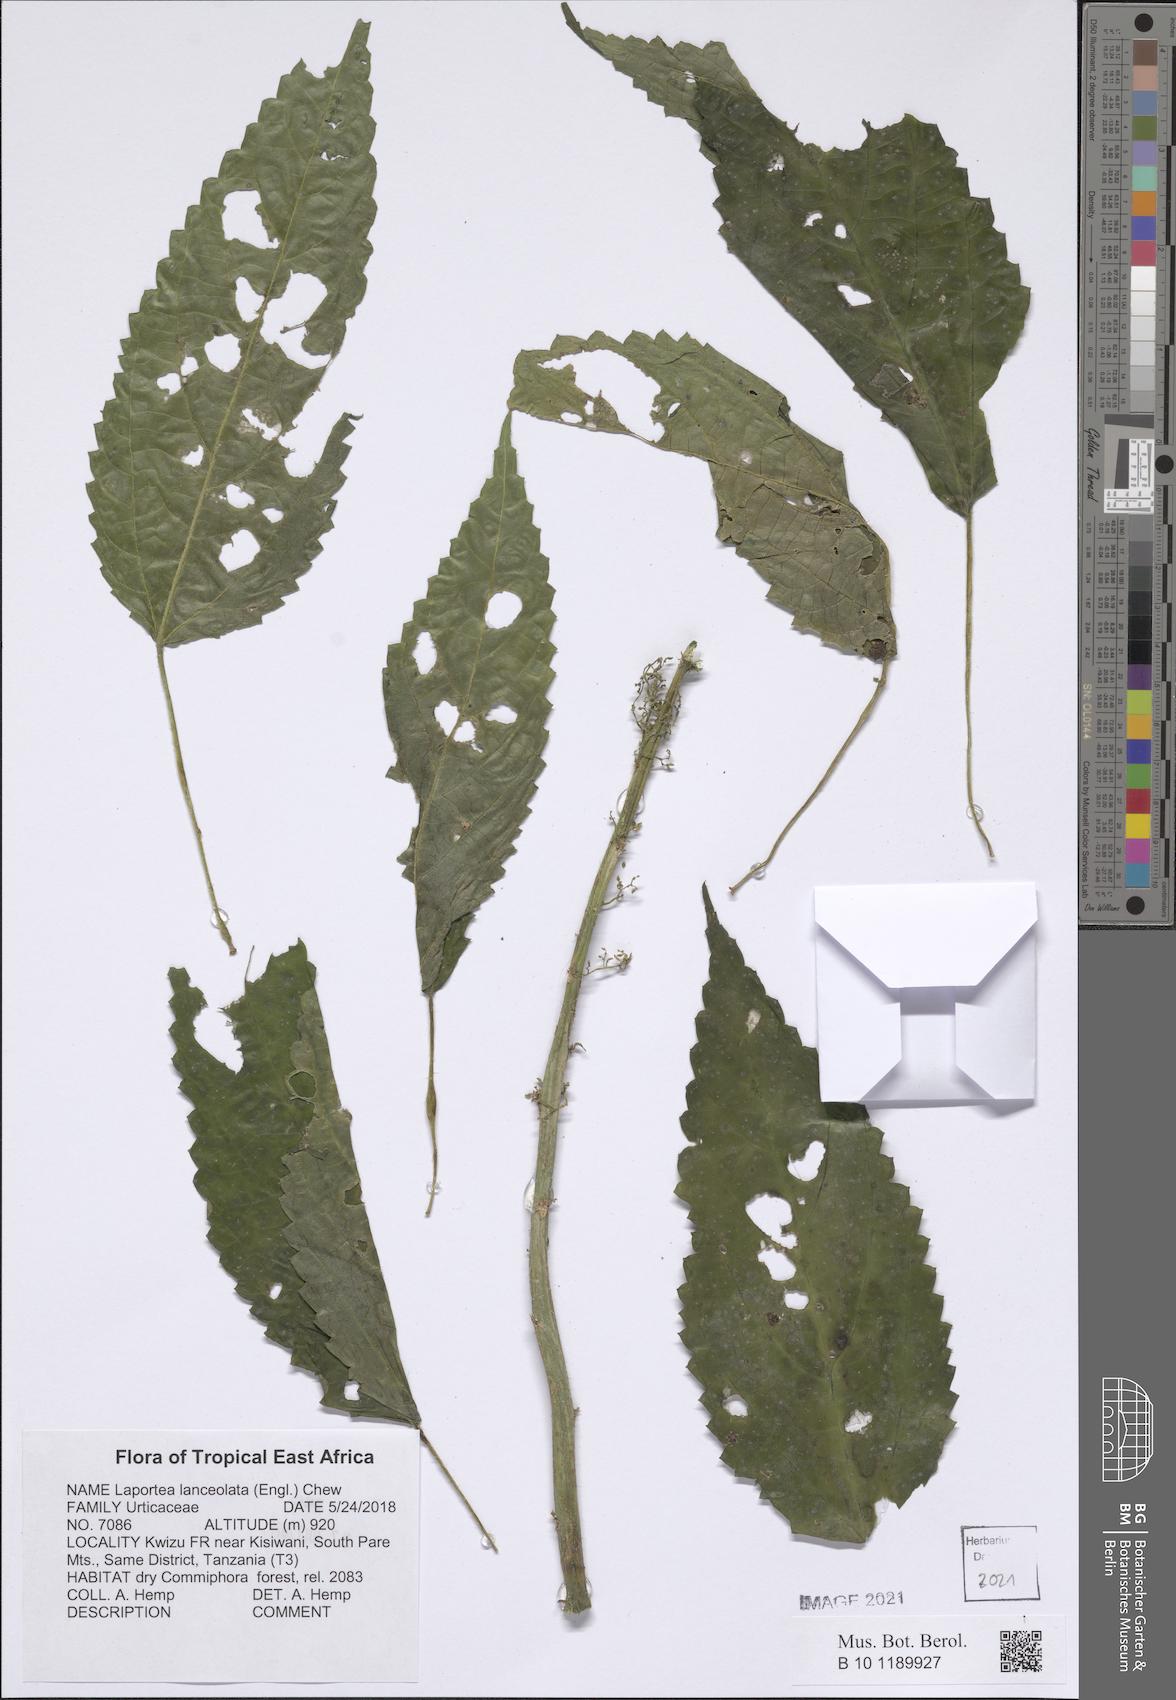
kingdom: Plantae
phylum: Tracheophyta
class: Magnoliopsida
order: Rosales
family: Urticaceae
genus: Laportea
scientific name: Laportea lanceolata
